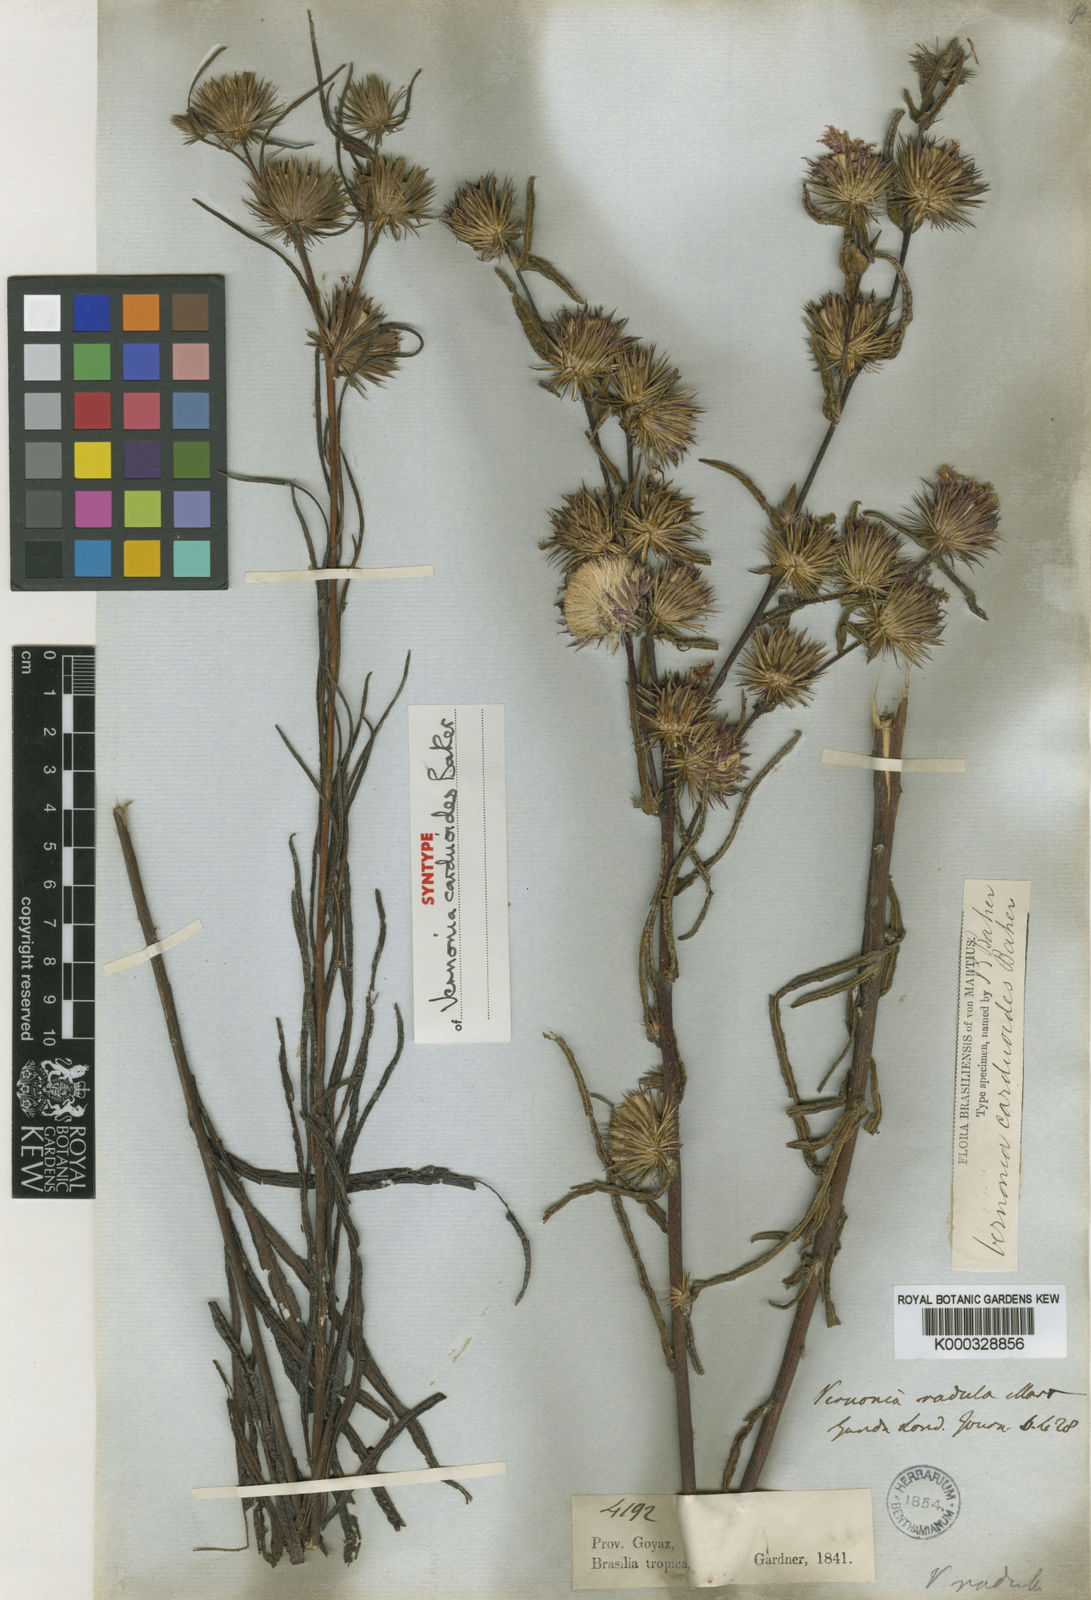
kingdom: Plantae
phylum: Tracheophyta
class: Magnoliopsida
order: Asterales
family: Asteraceae
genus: Lessingianthus
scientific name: Lessingianthus carduoides
